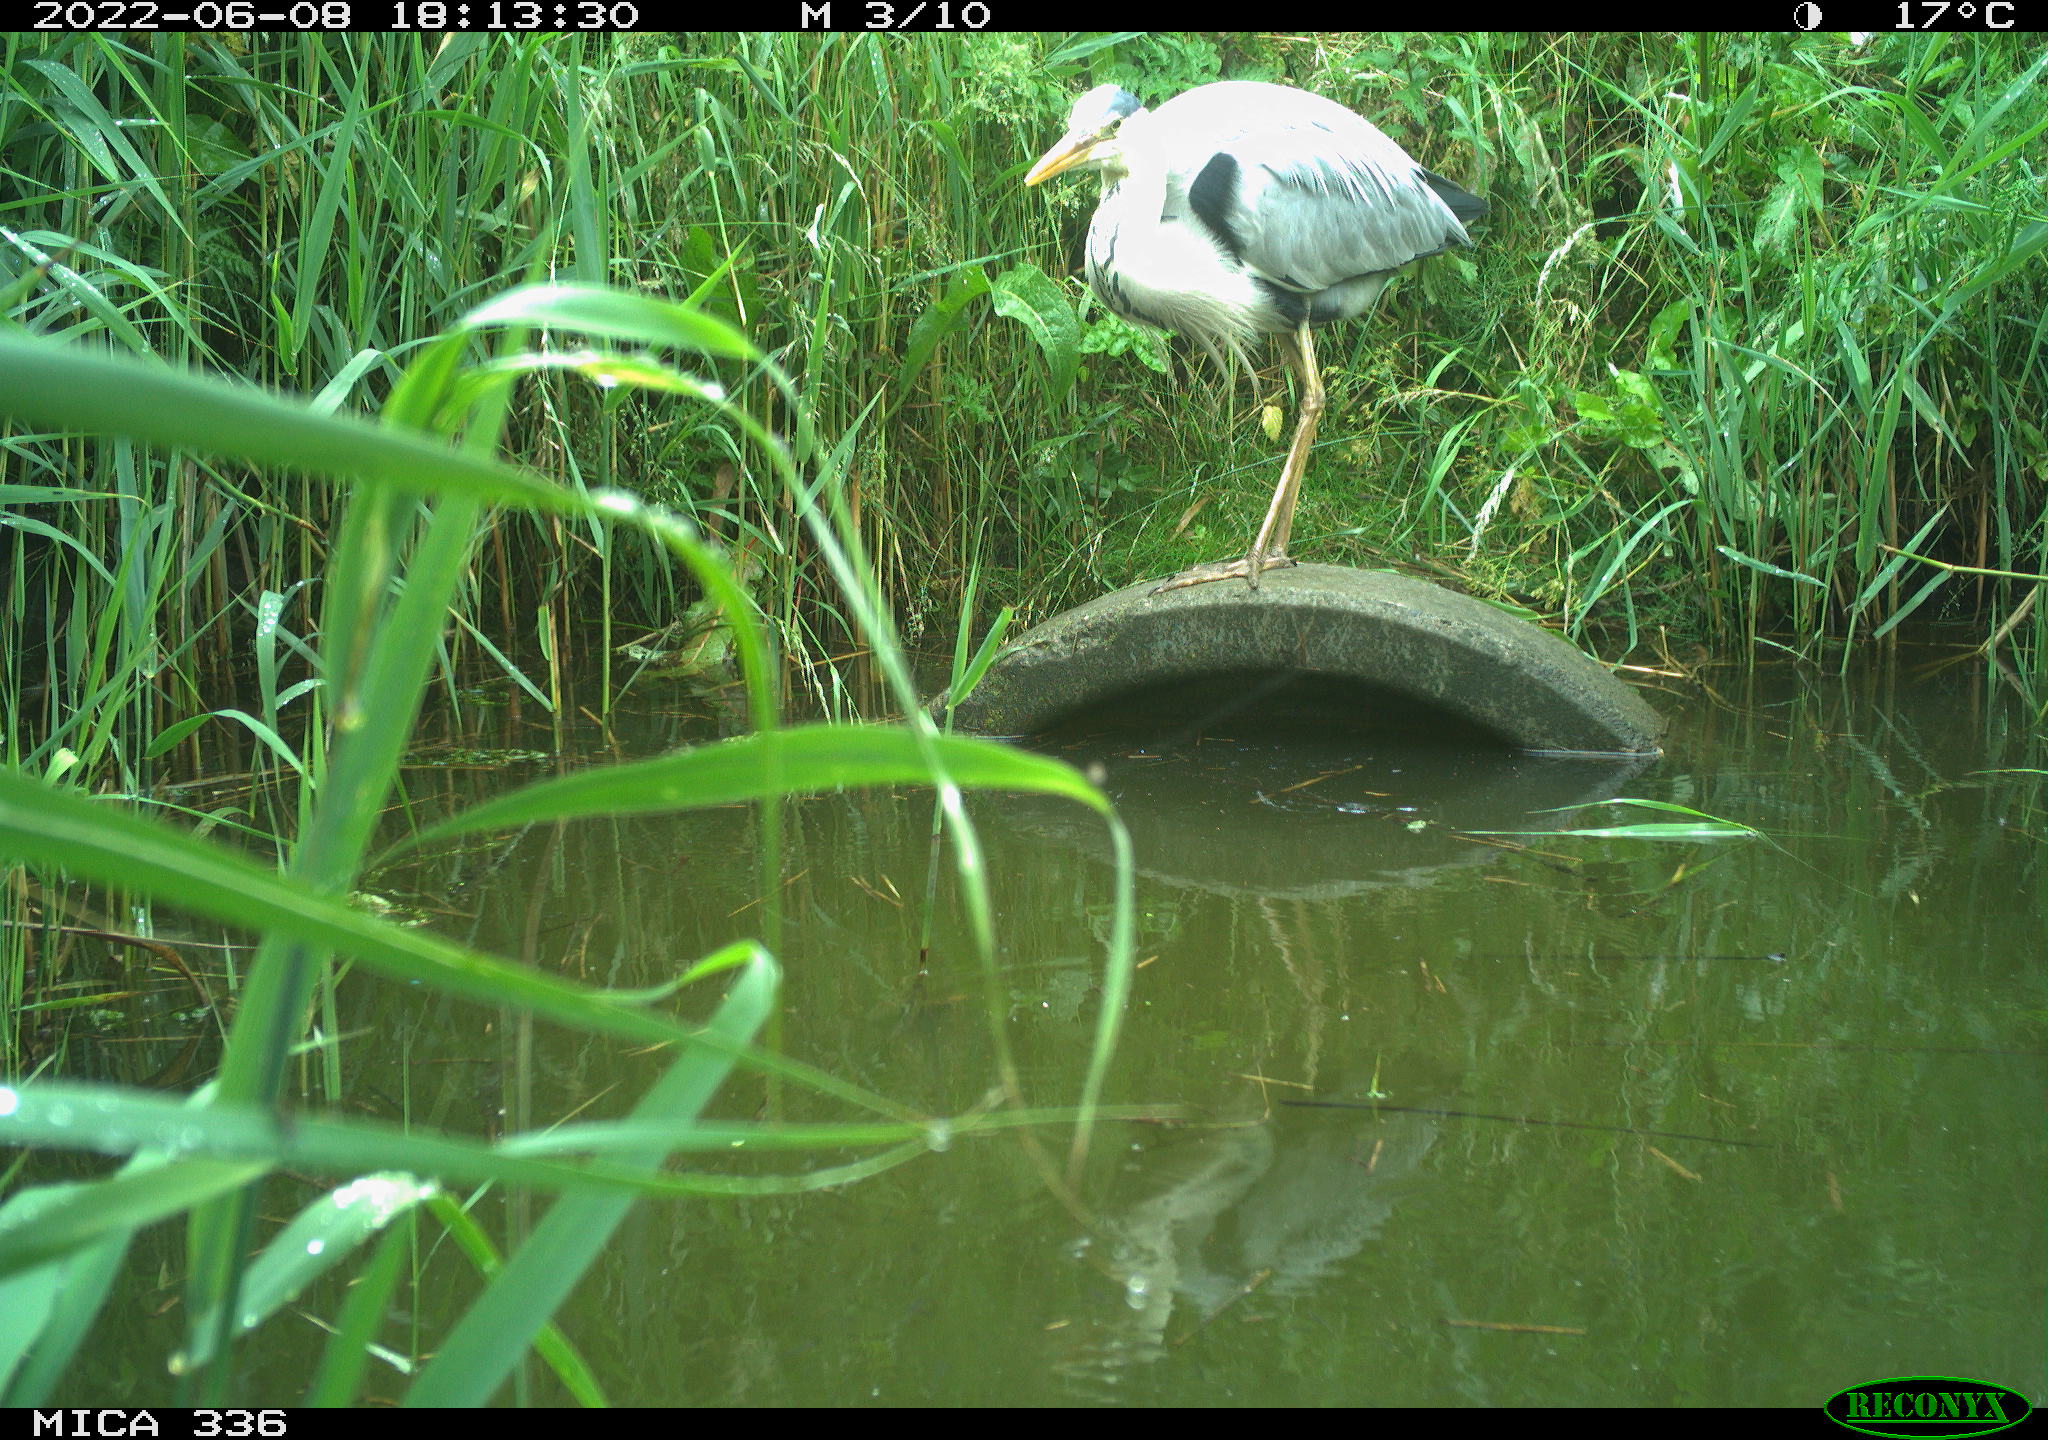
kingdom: Animalia
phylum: Chordata
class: Aves
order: Pelecaniformes
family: Ardeidae
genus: Ardea
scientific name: Ardea
